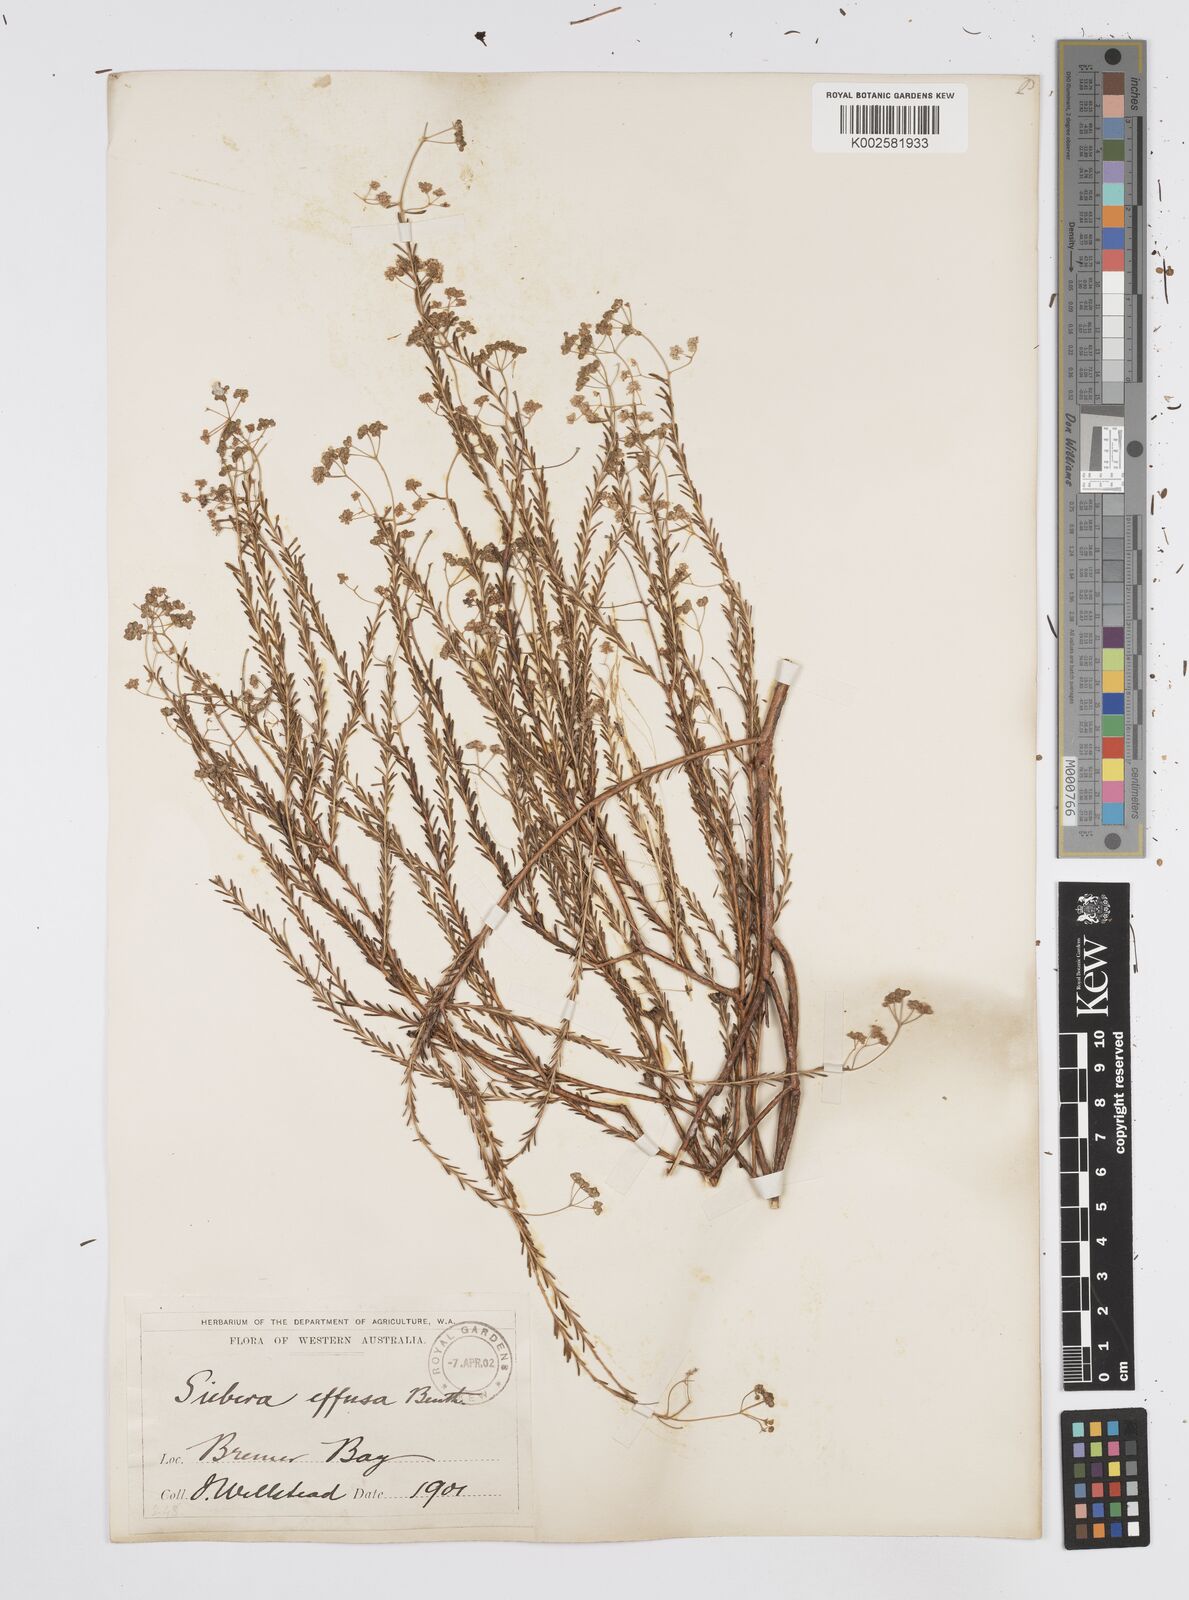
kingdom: Plantae
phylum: Tracheophyta
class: Magnoliopsida
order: Apiales
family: Apiaceae
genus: Platysace
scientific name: Platysace effusa
